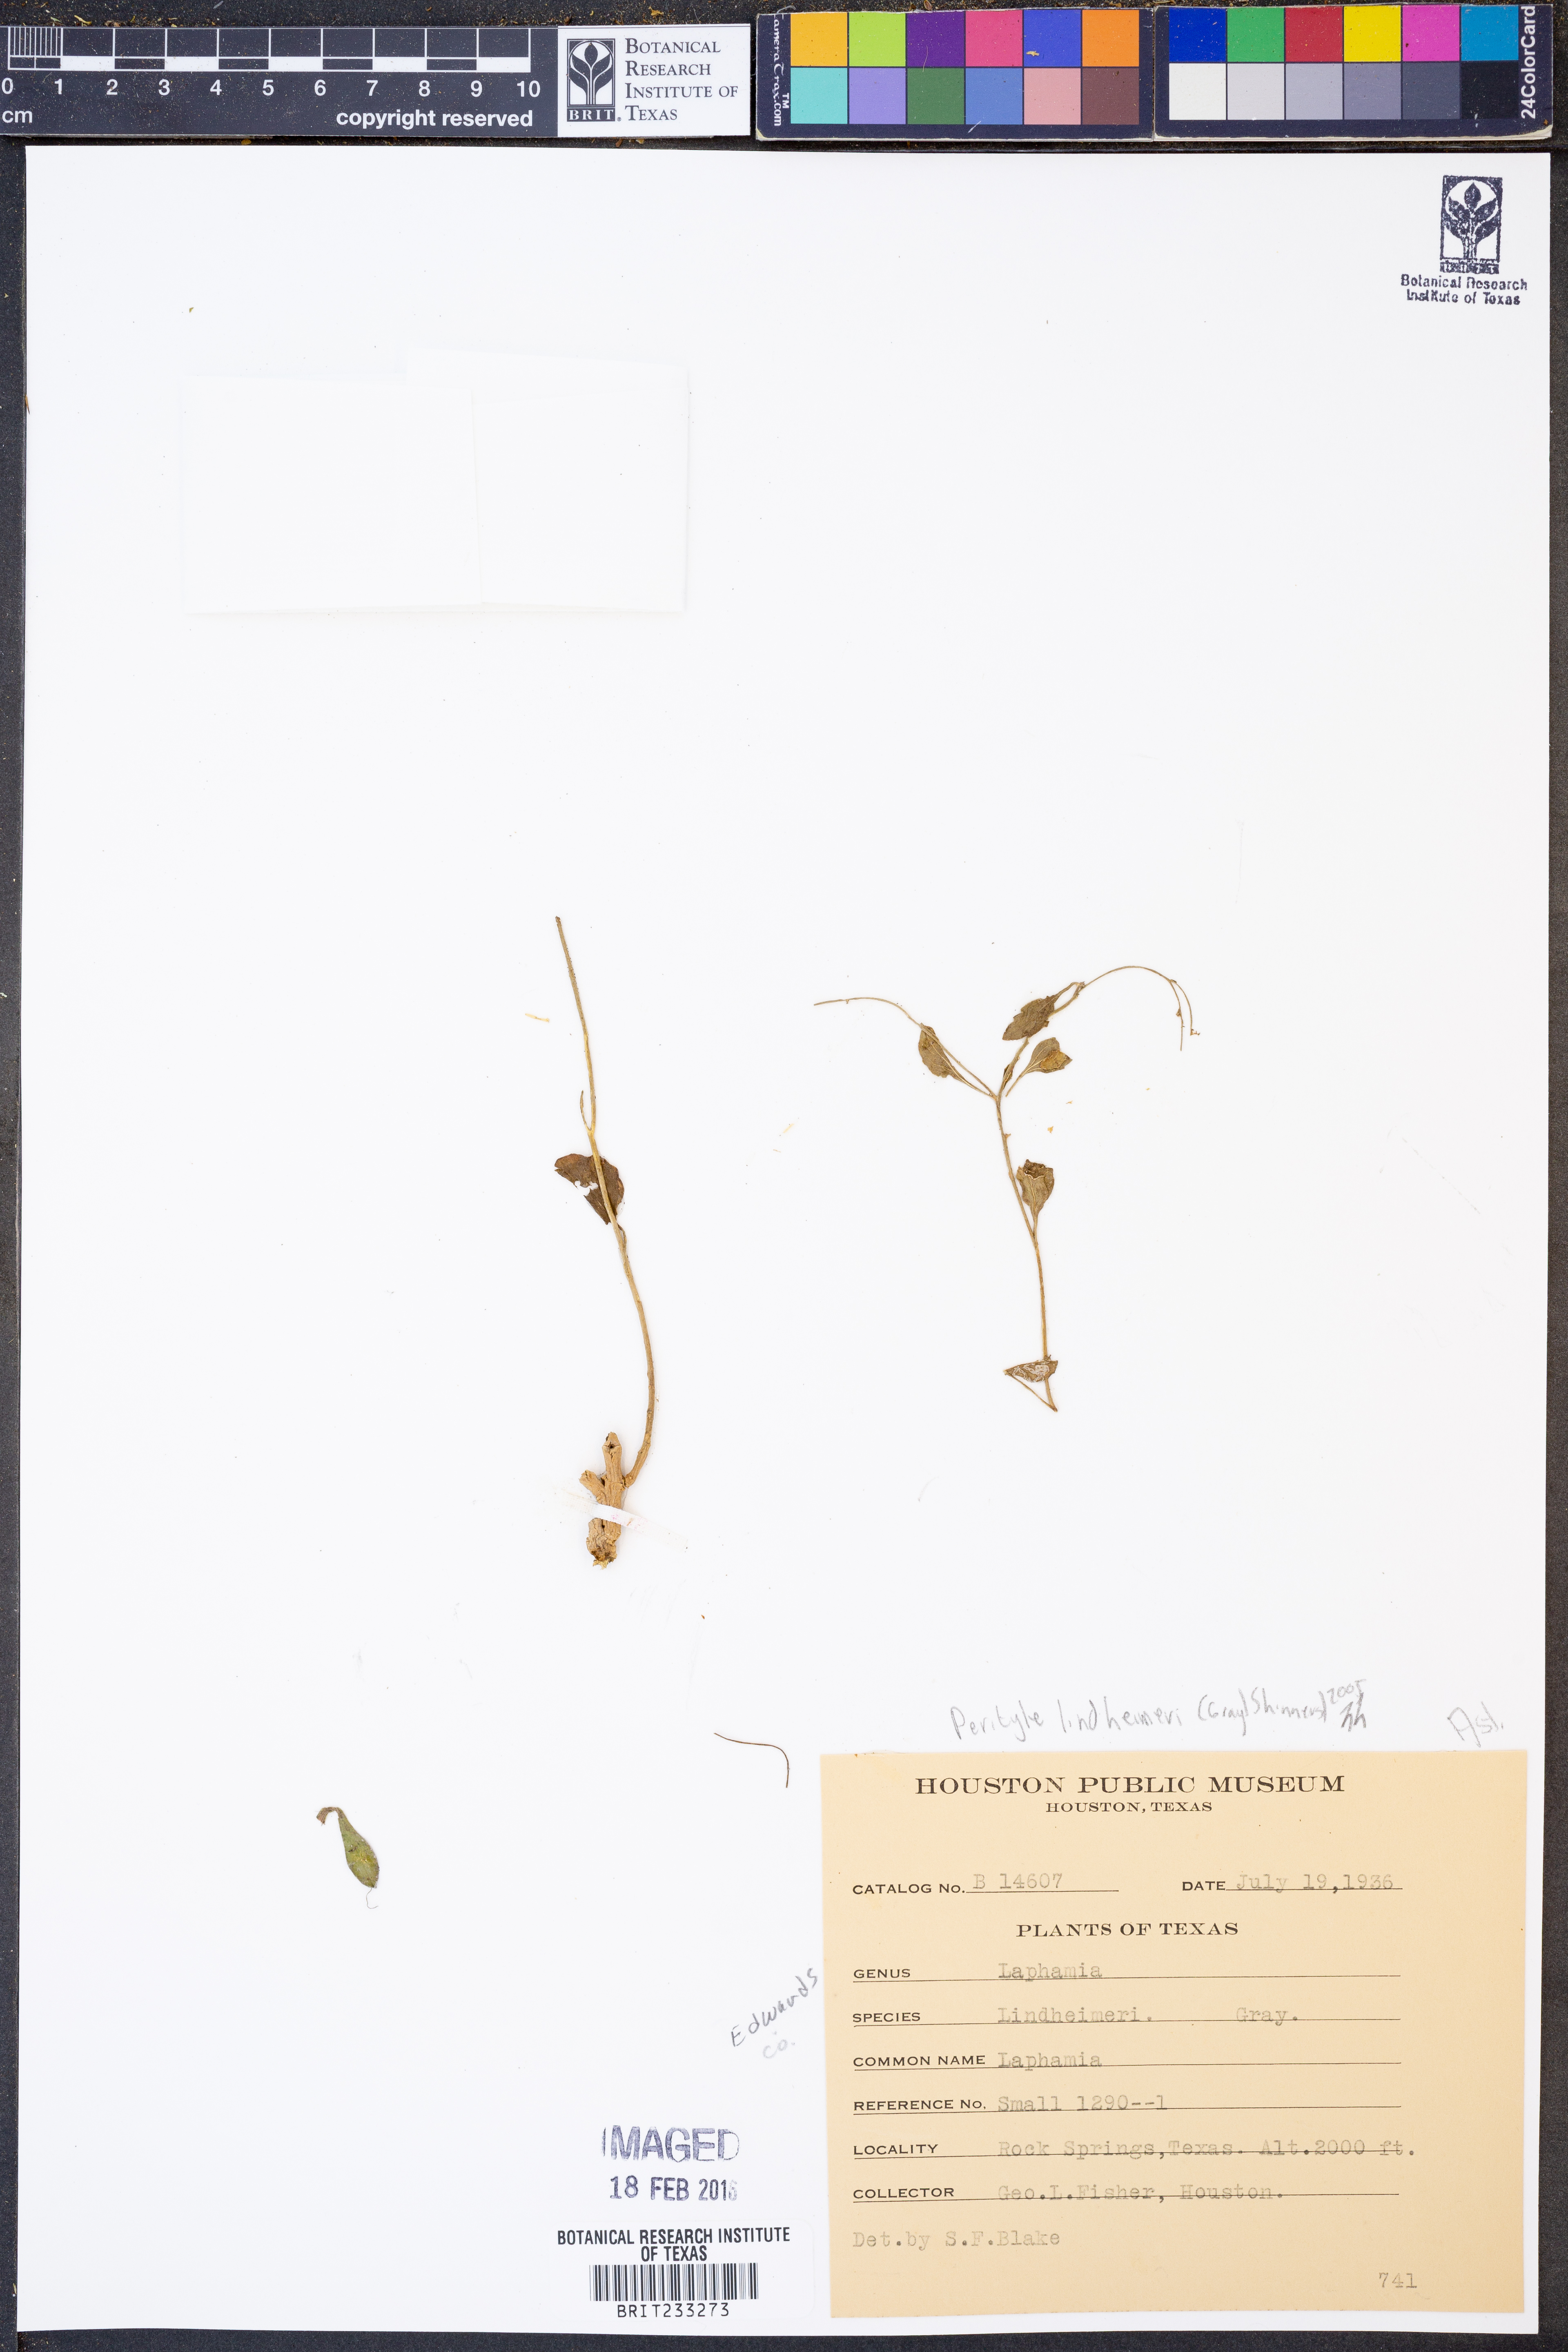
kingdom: Plantae
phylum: Tracheophyta
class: Magnoliopsida
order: Asterales
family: Asteraceae
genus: Laphamia
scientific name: Laphamia lindheimeri
